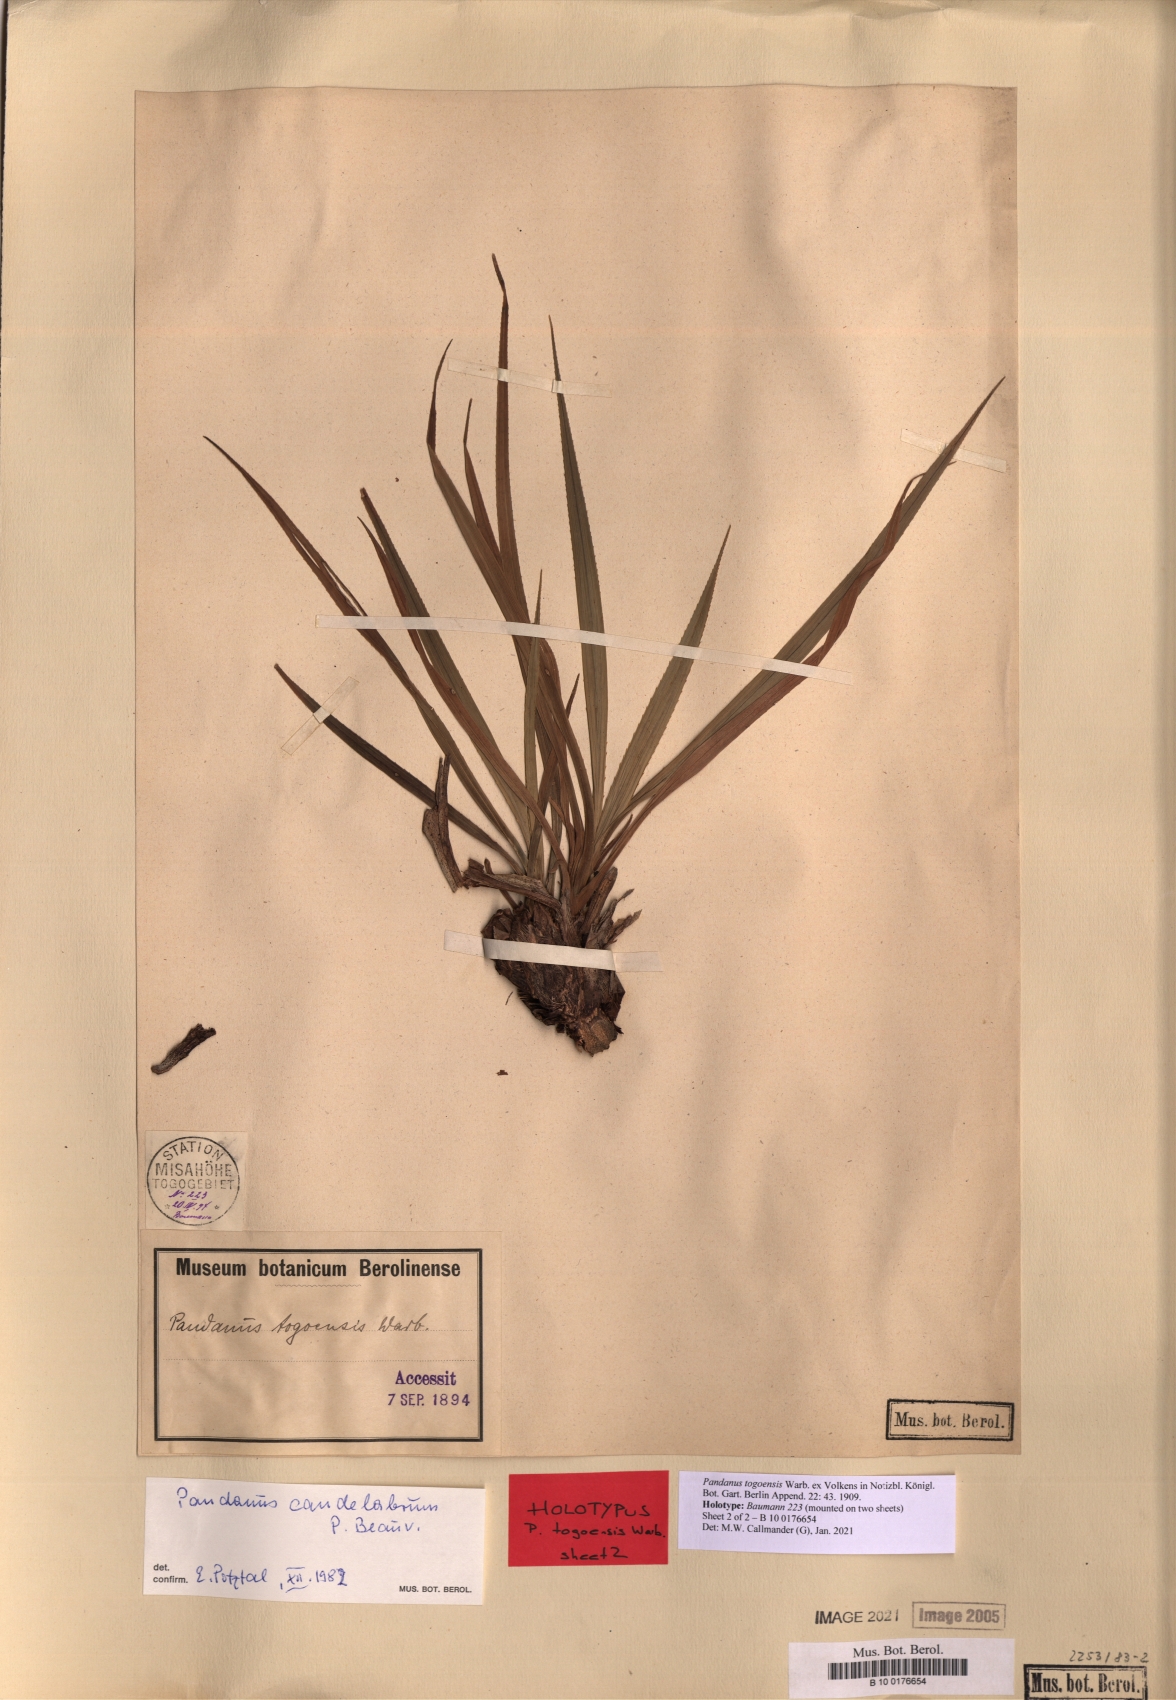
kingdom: Plantae
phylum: Tracheophyta
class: Liliopsida
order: Pandanales
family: Pandanaceae
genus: Pandanus
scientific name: Pandanus candelabrum
